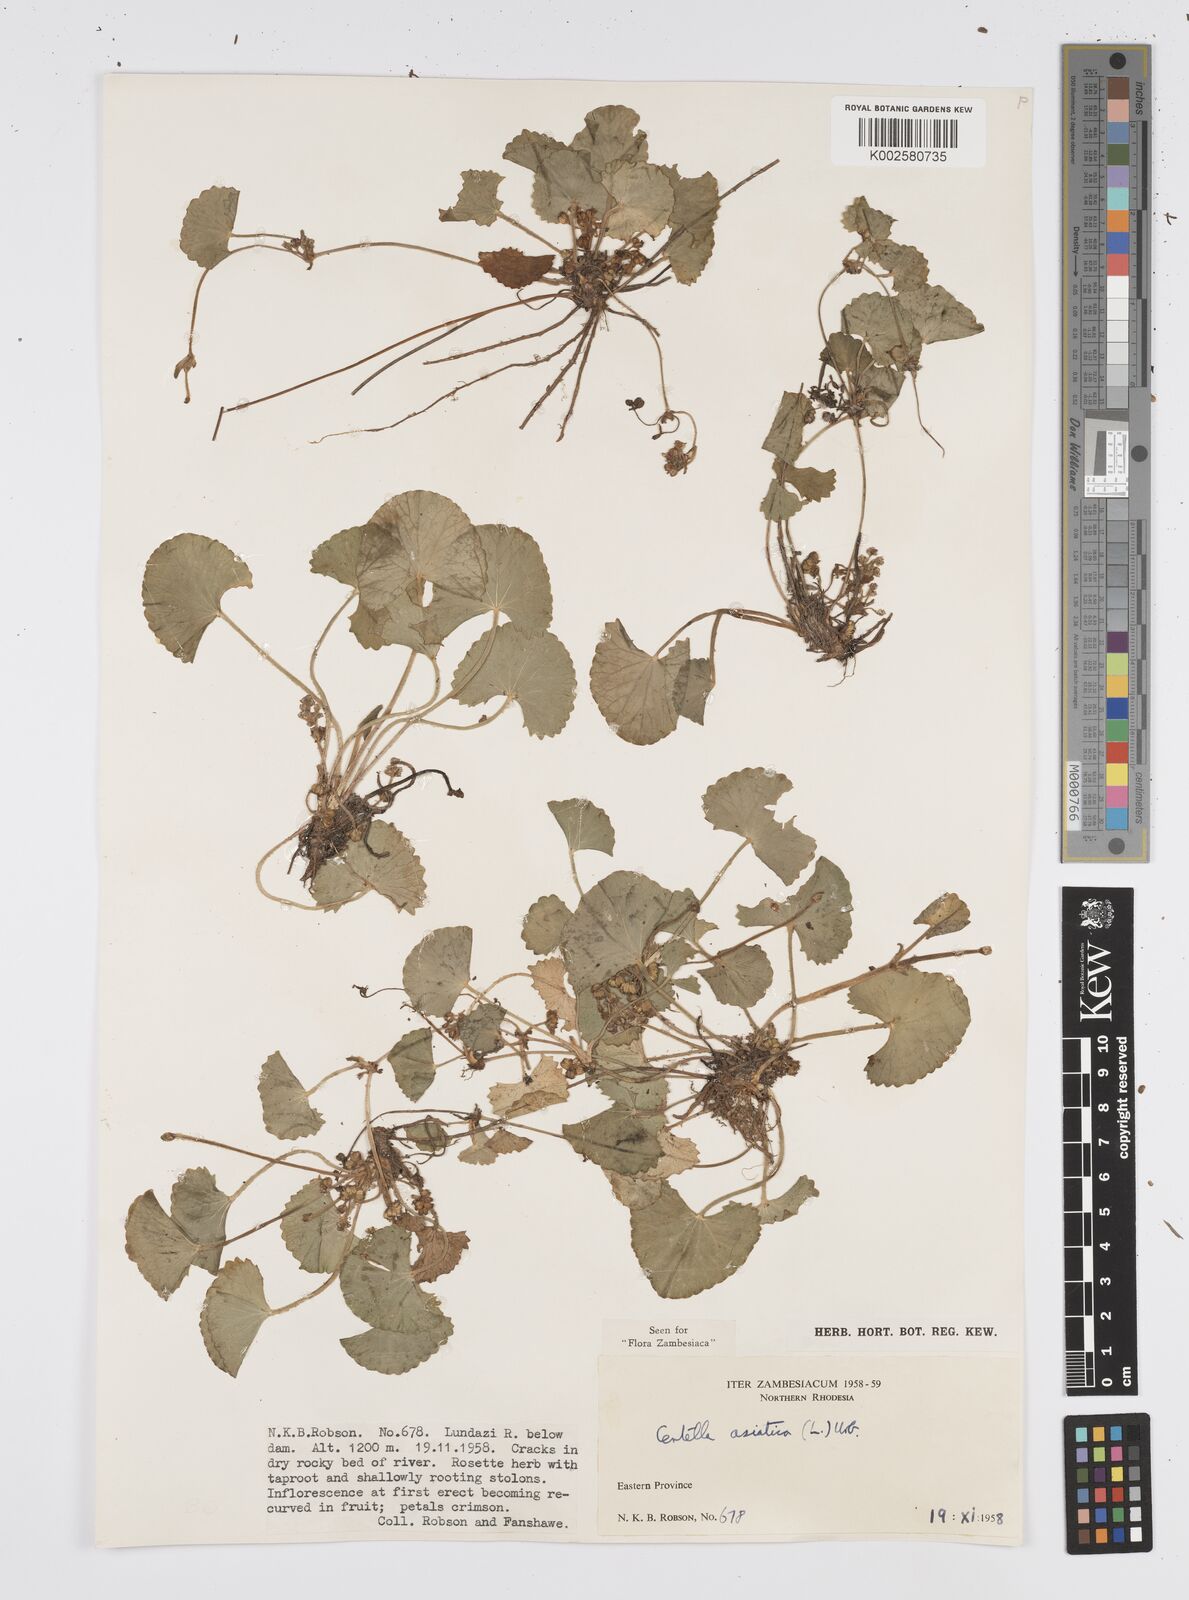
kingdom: Plantae
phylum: Tracheophyta
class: Magnoliopsida
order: Apiales
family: Apiaceae
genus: Centella
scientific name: Centella asiatica
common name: Spadeleaf
